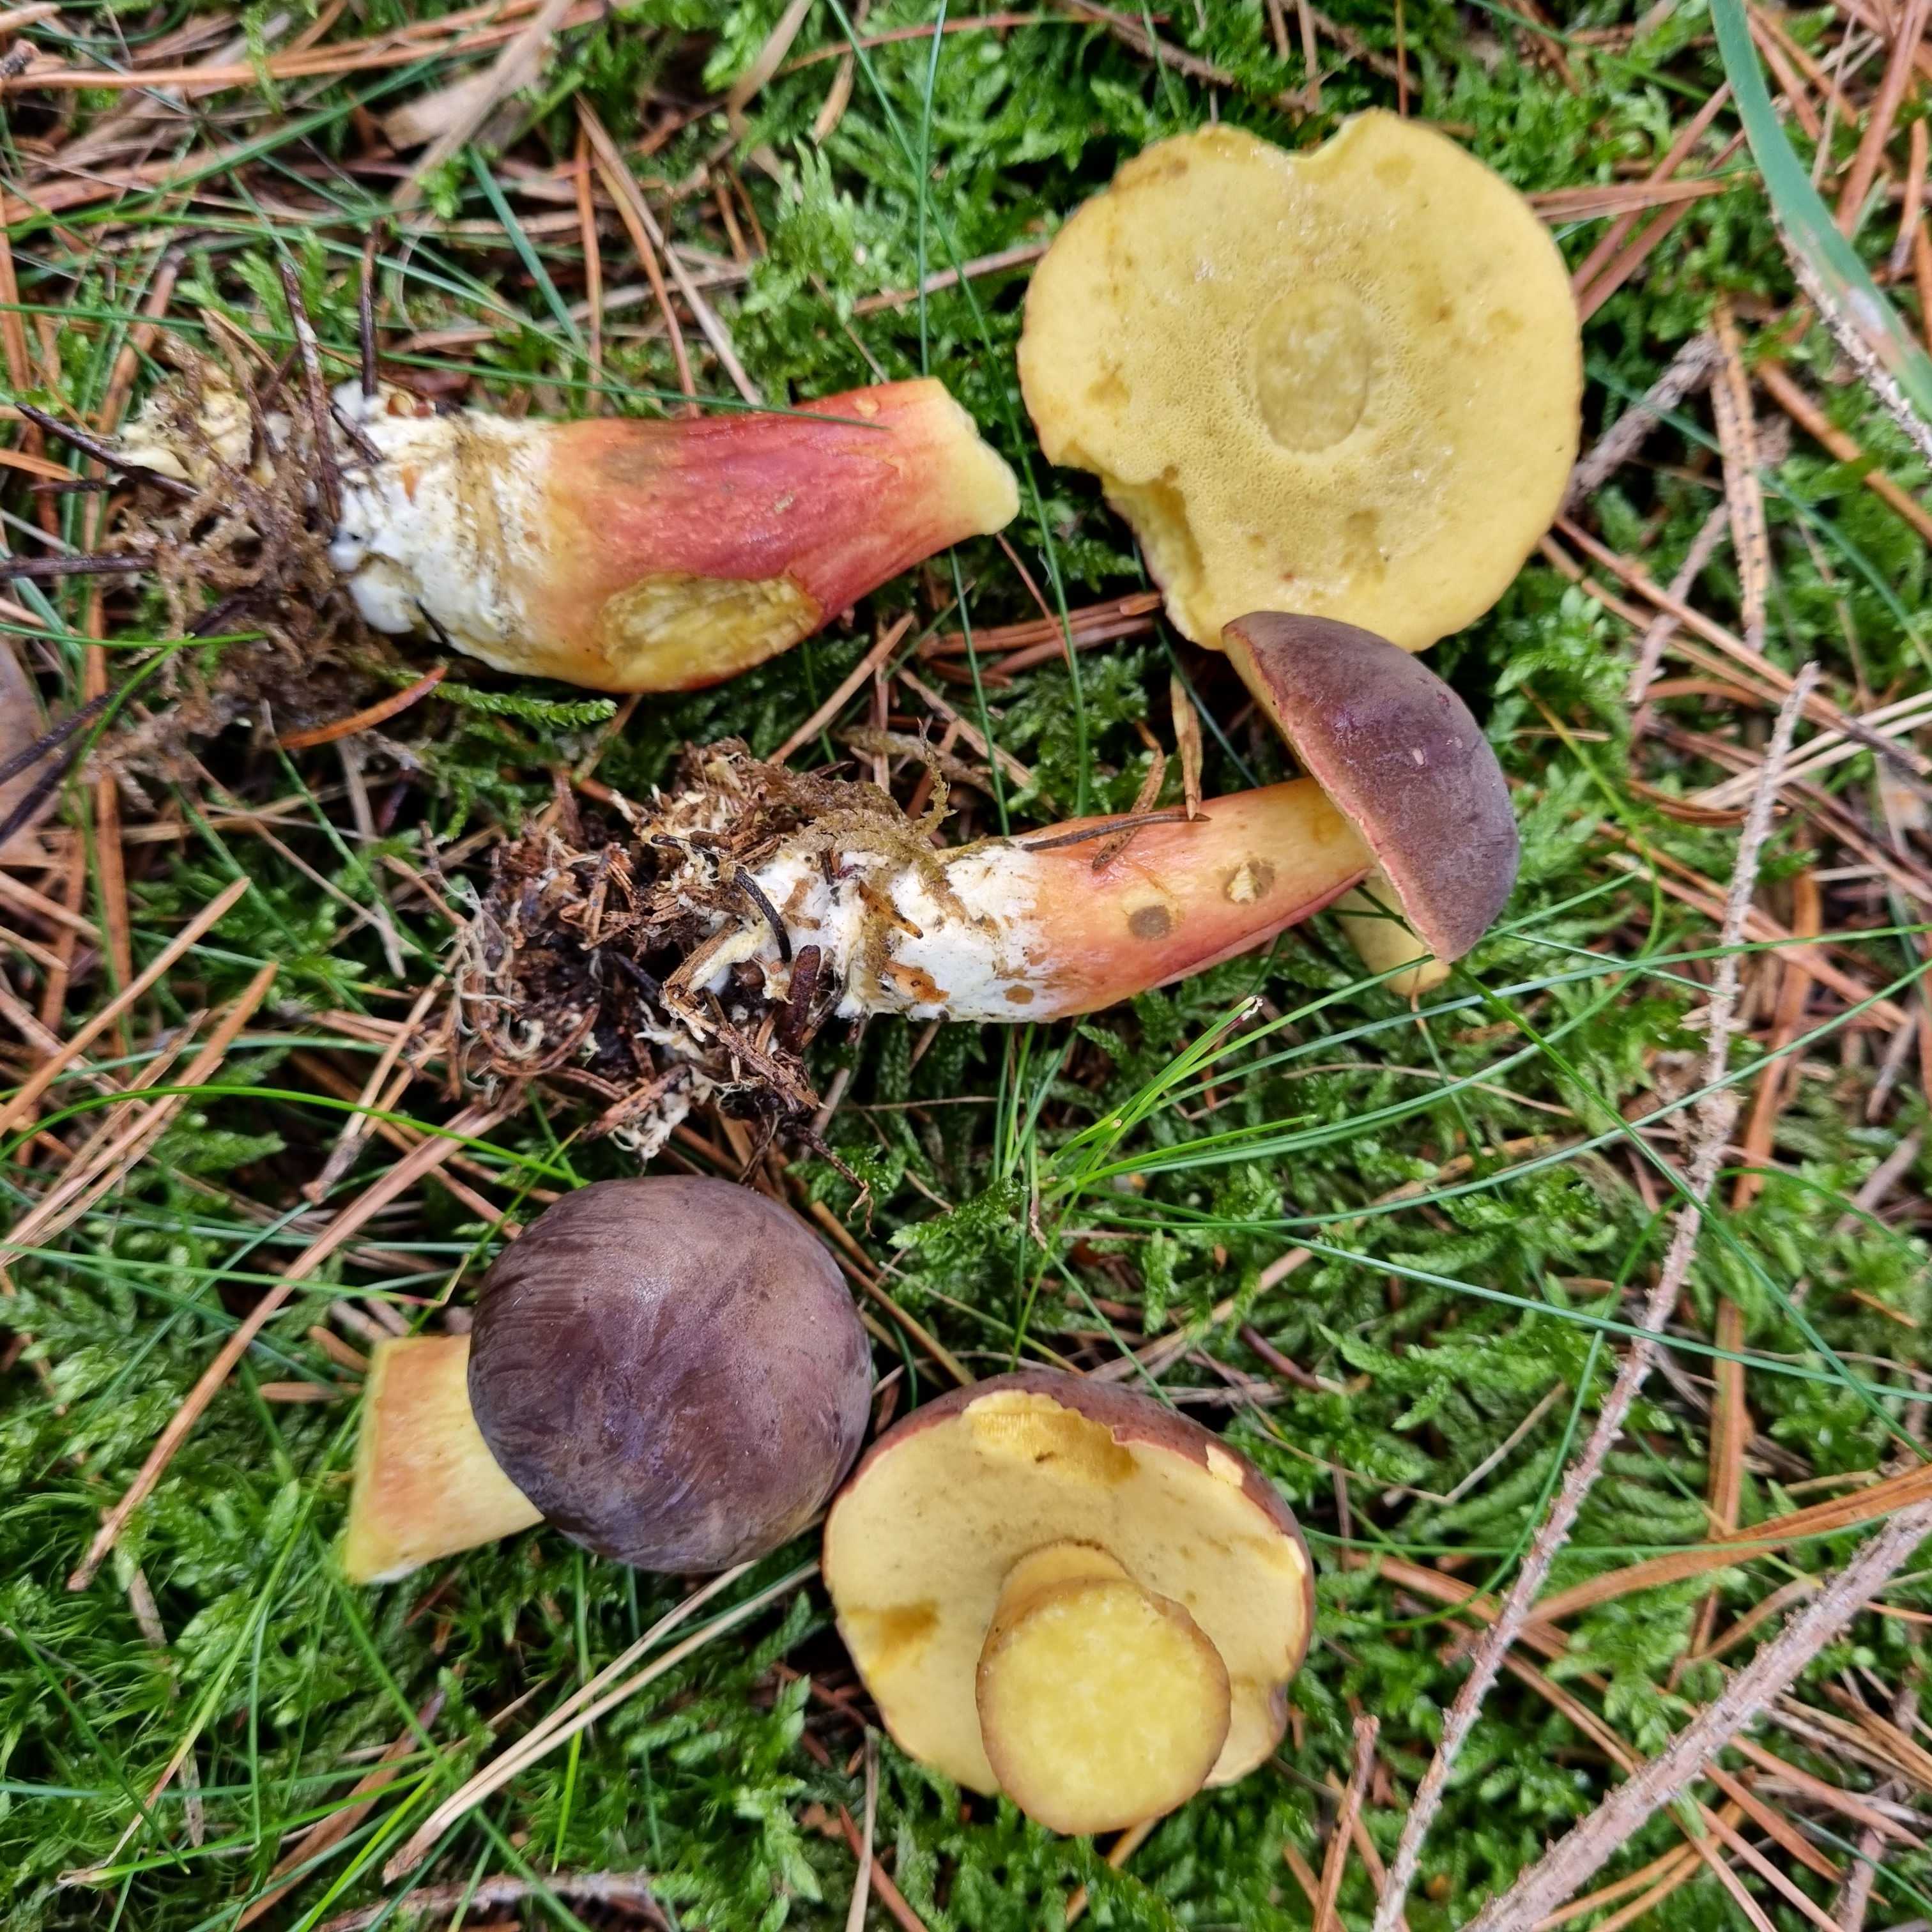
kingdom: Fungi
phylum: Basidiomycota
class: Agaricomycetes
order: Boletales
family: Boletaceae
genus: Xerocomellus
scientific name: Xerocomellus pruinatus
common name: dugget rørhat
